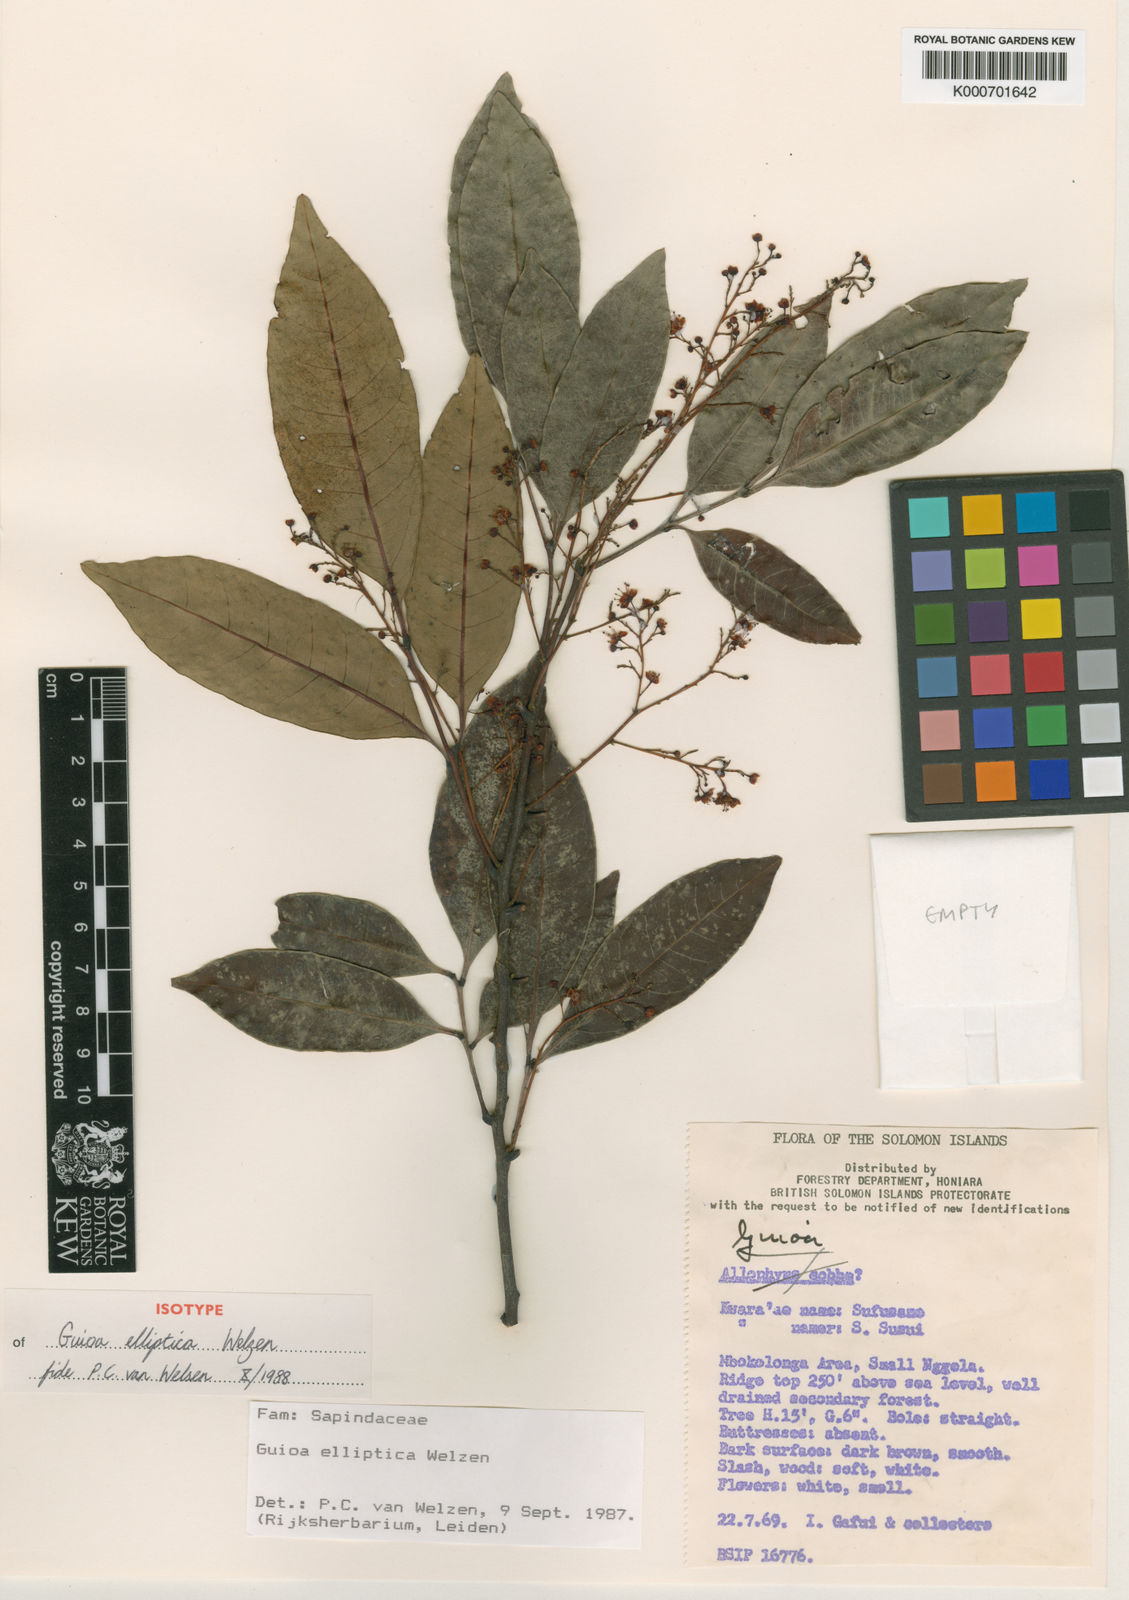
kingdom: Plantae
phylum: Tracheophyta
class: Magnoliopsida
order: Sapindales
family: Sapindaceae
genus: Guioa
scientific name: Guioa elliptica
